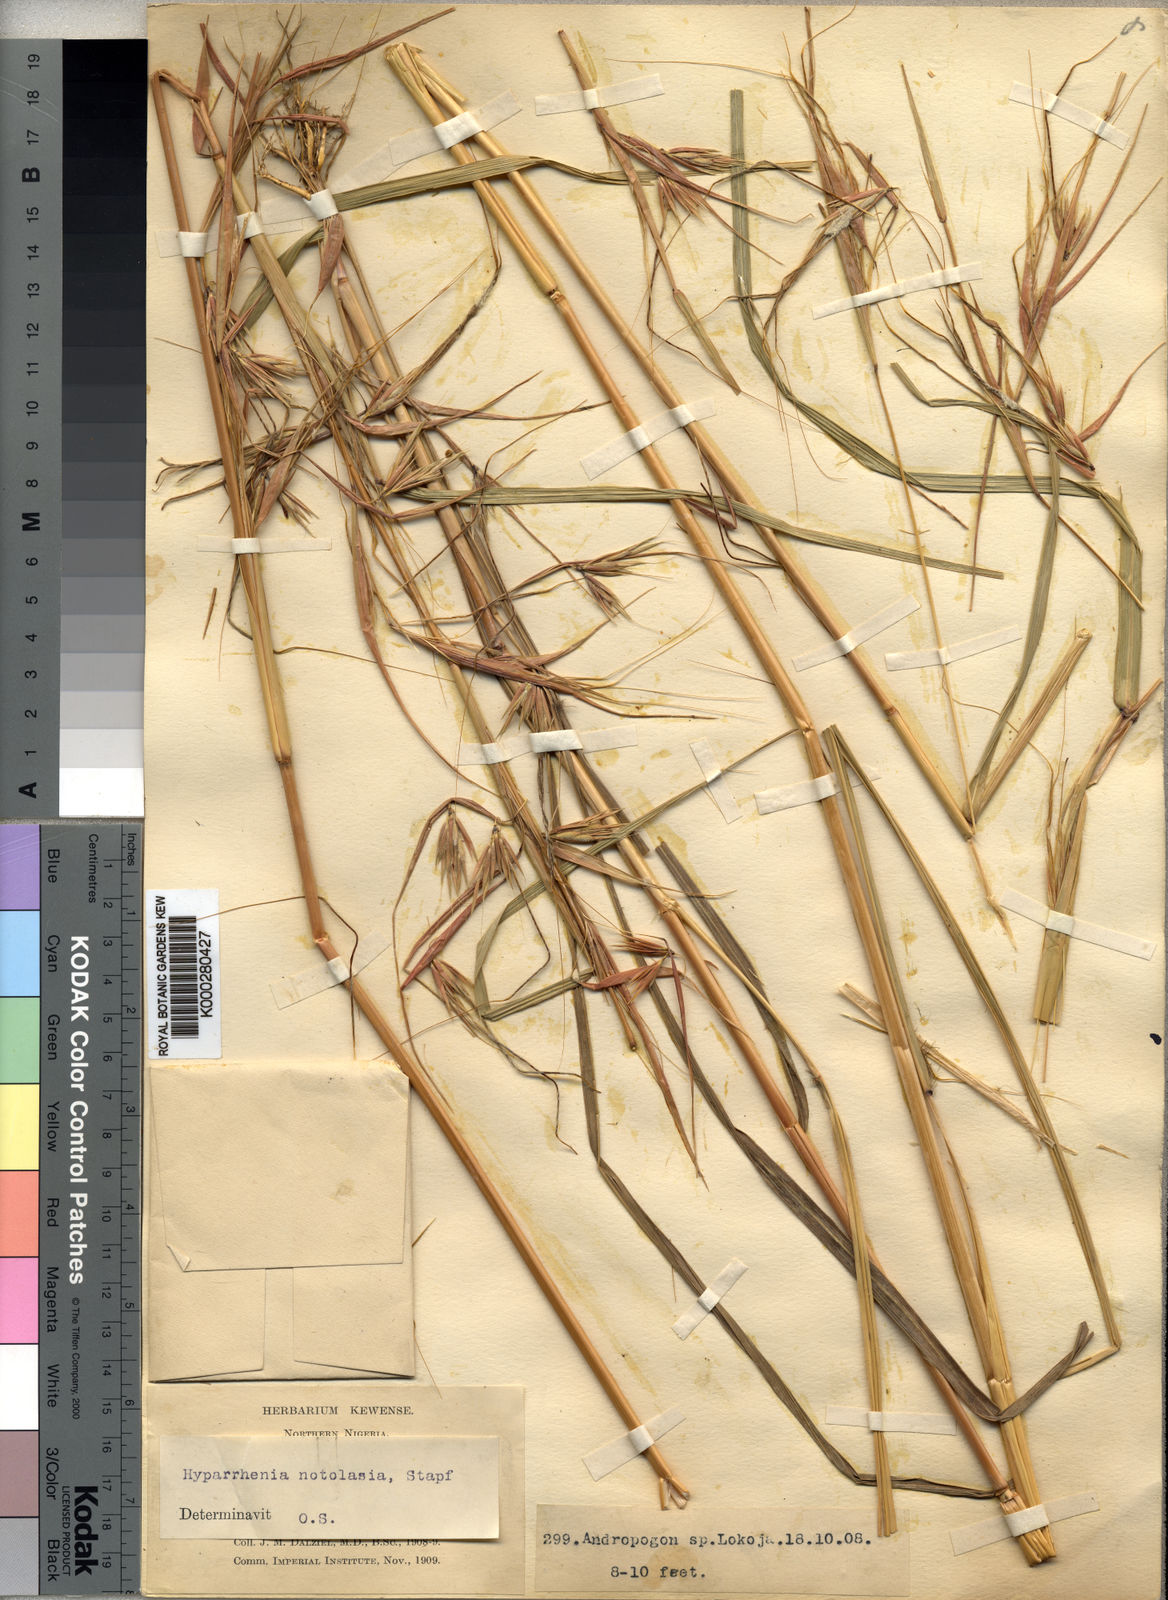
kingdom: Plantae
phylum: Tracheophyta
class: Liliopsida
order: Poales
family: Poaceae
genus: Hyparrhenia
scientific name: Hyparrhenia involucrata
